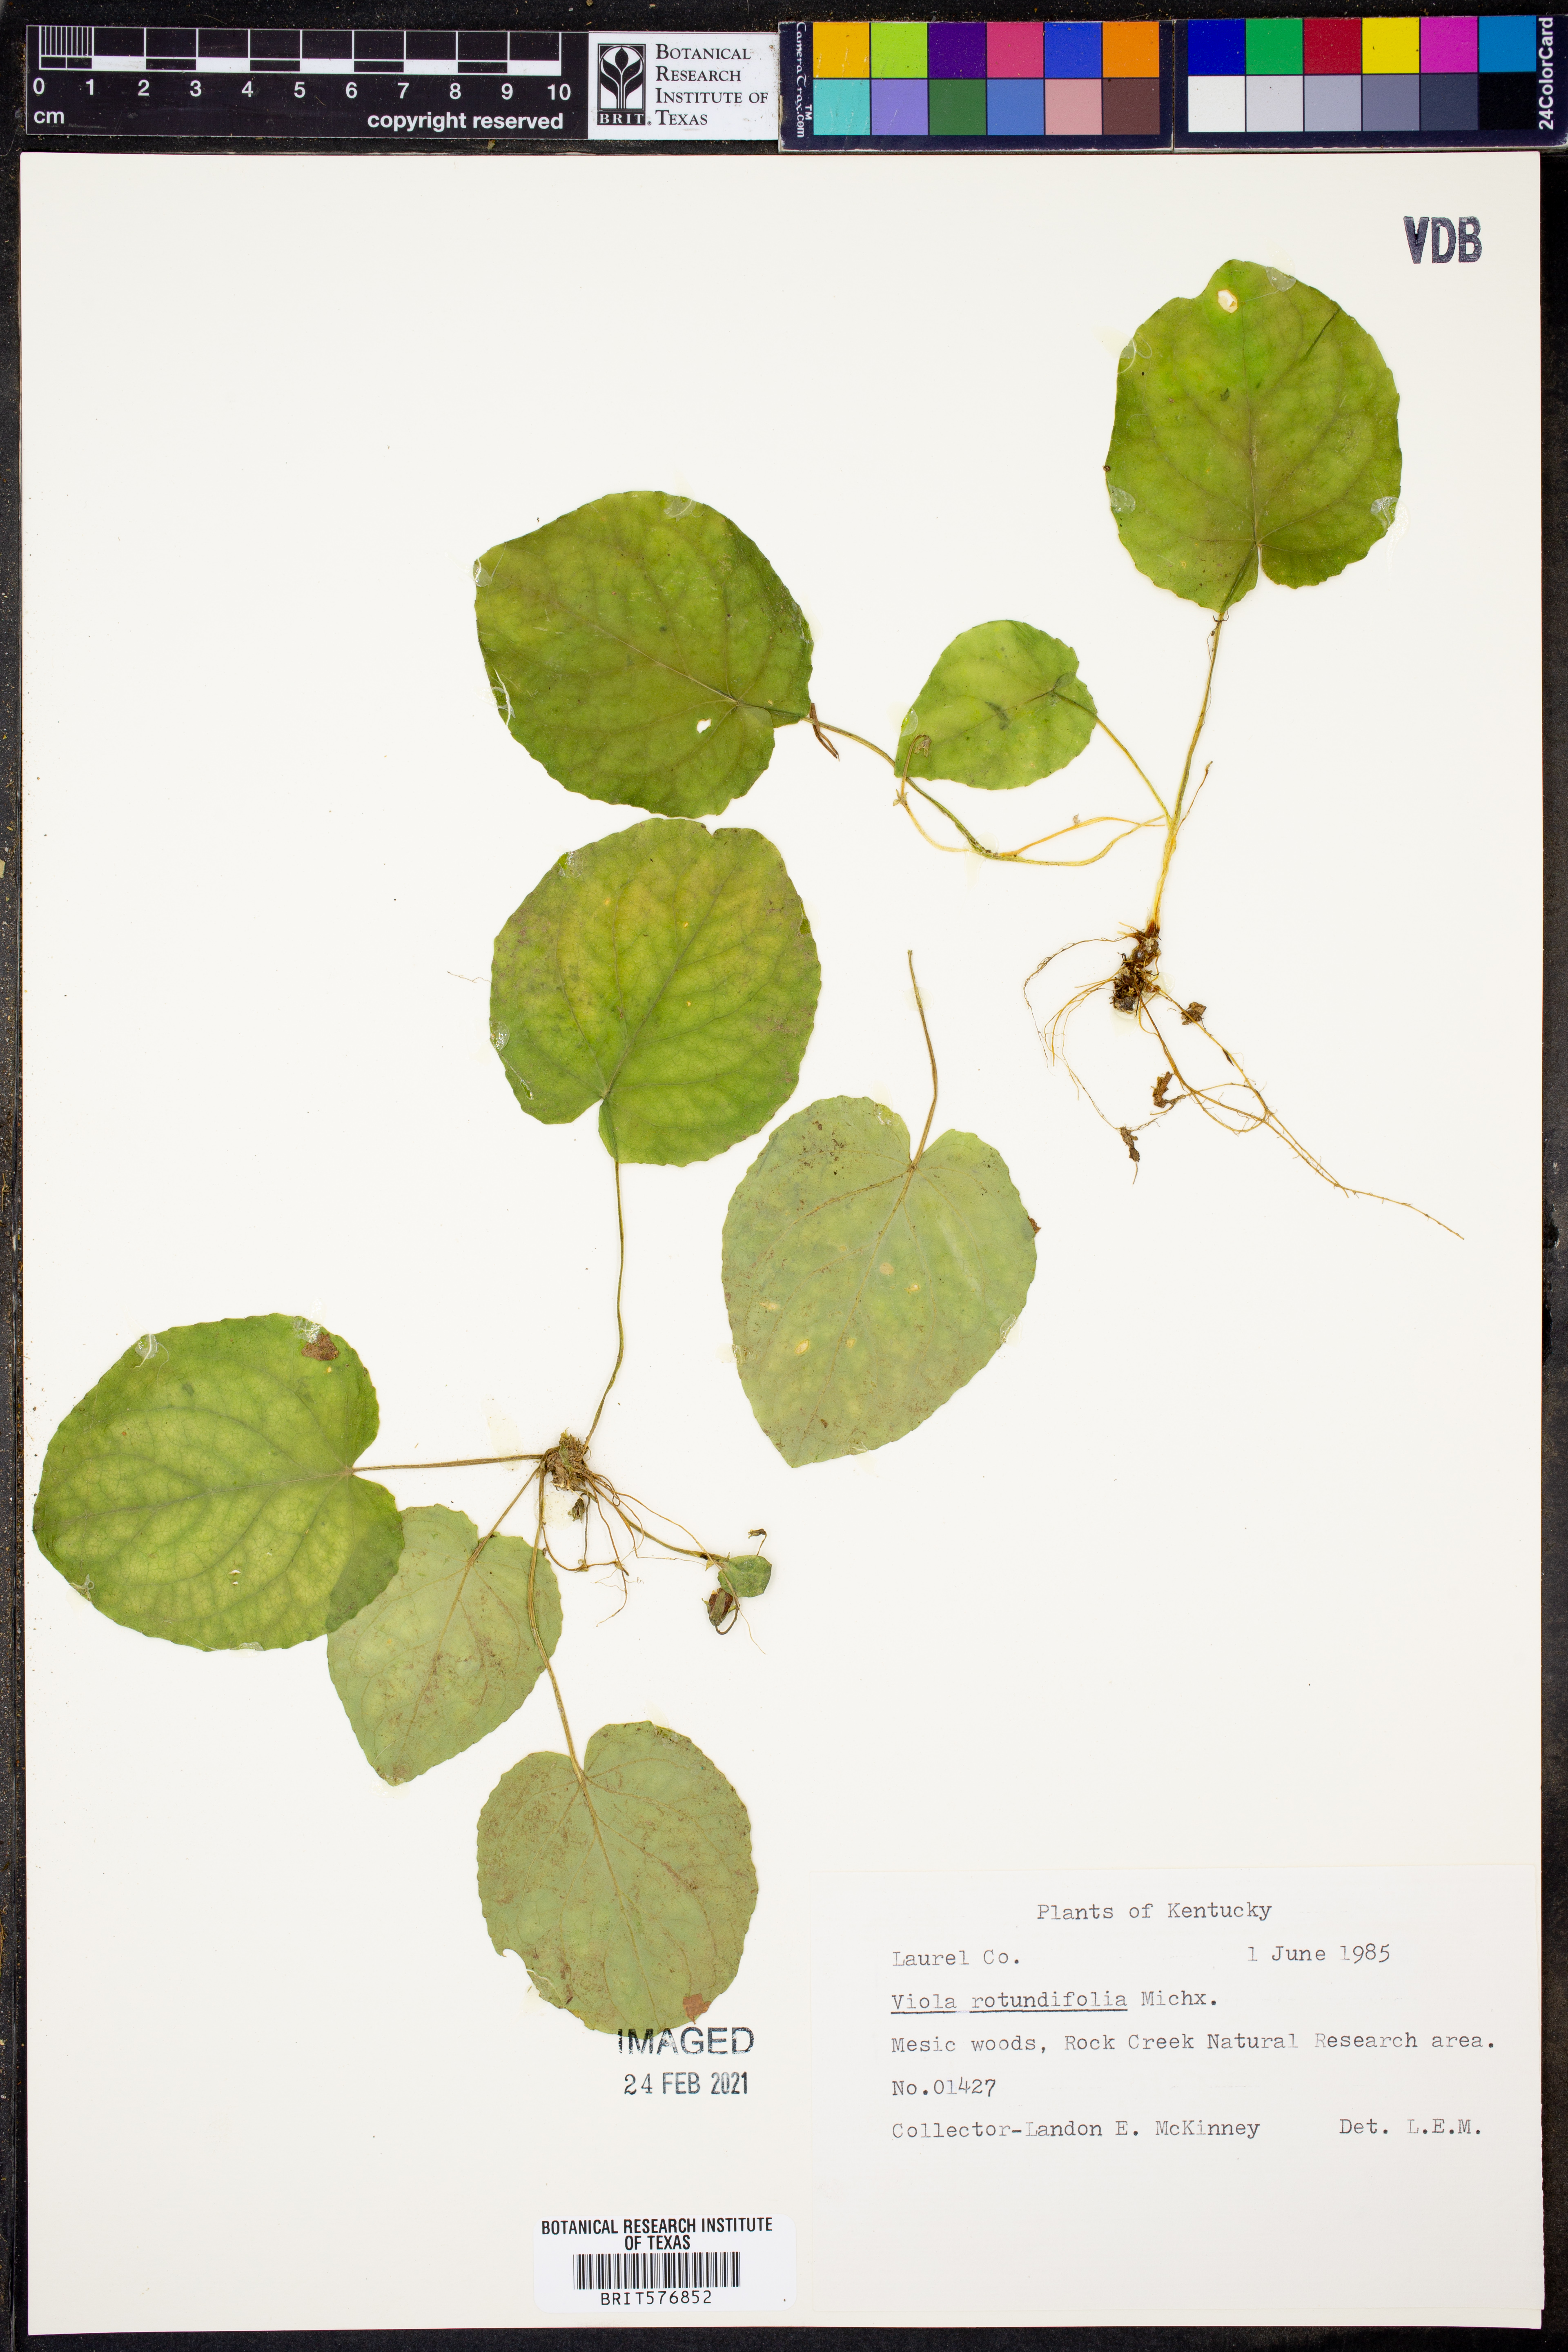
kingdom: Plantae
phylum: Tracheophyta
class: Magnoliopsida
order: Malpighiales
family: Violaceae
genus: Viola
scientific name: Viola rotundifolia
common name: Early yellow violet
